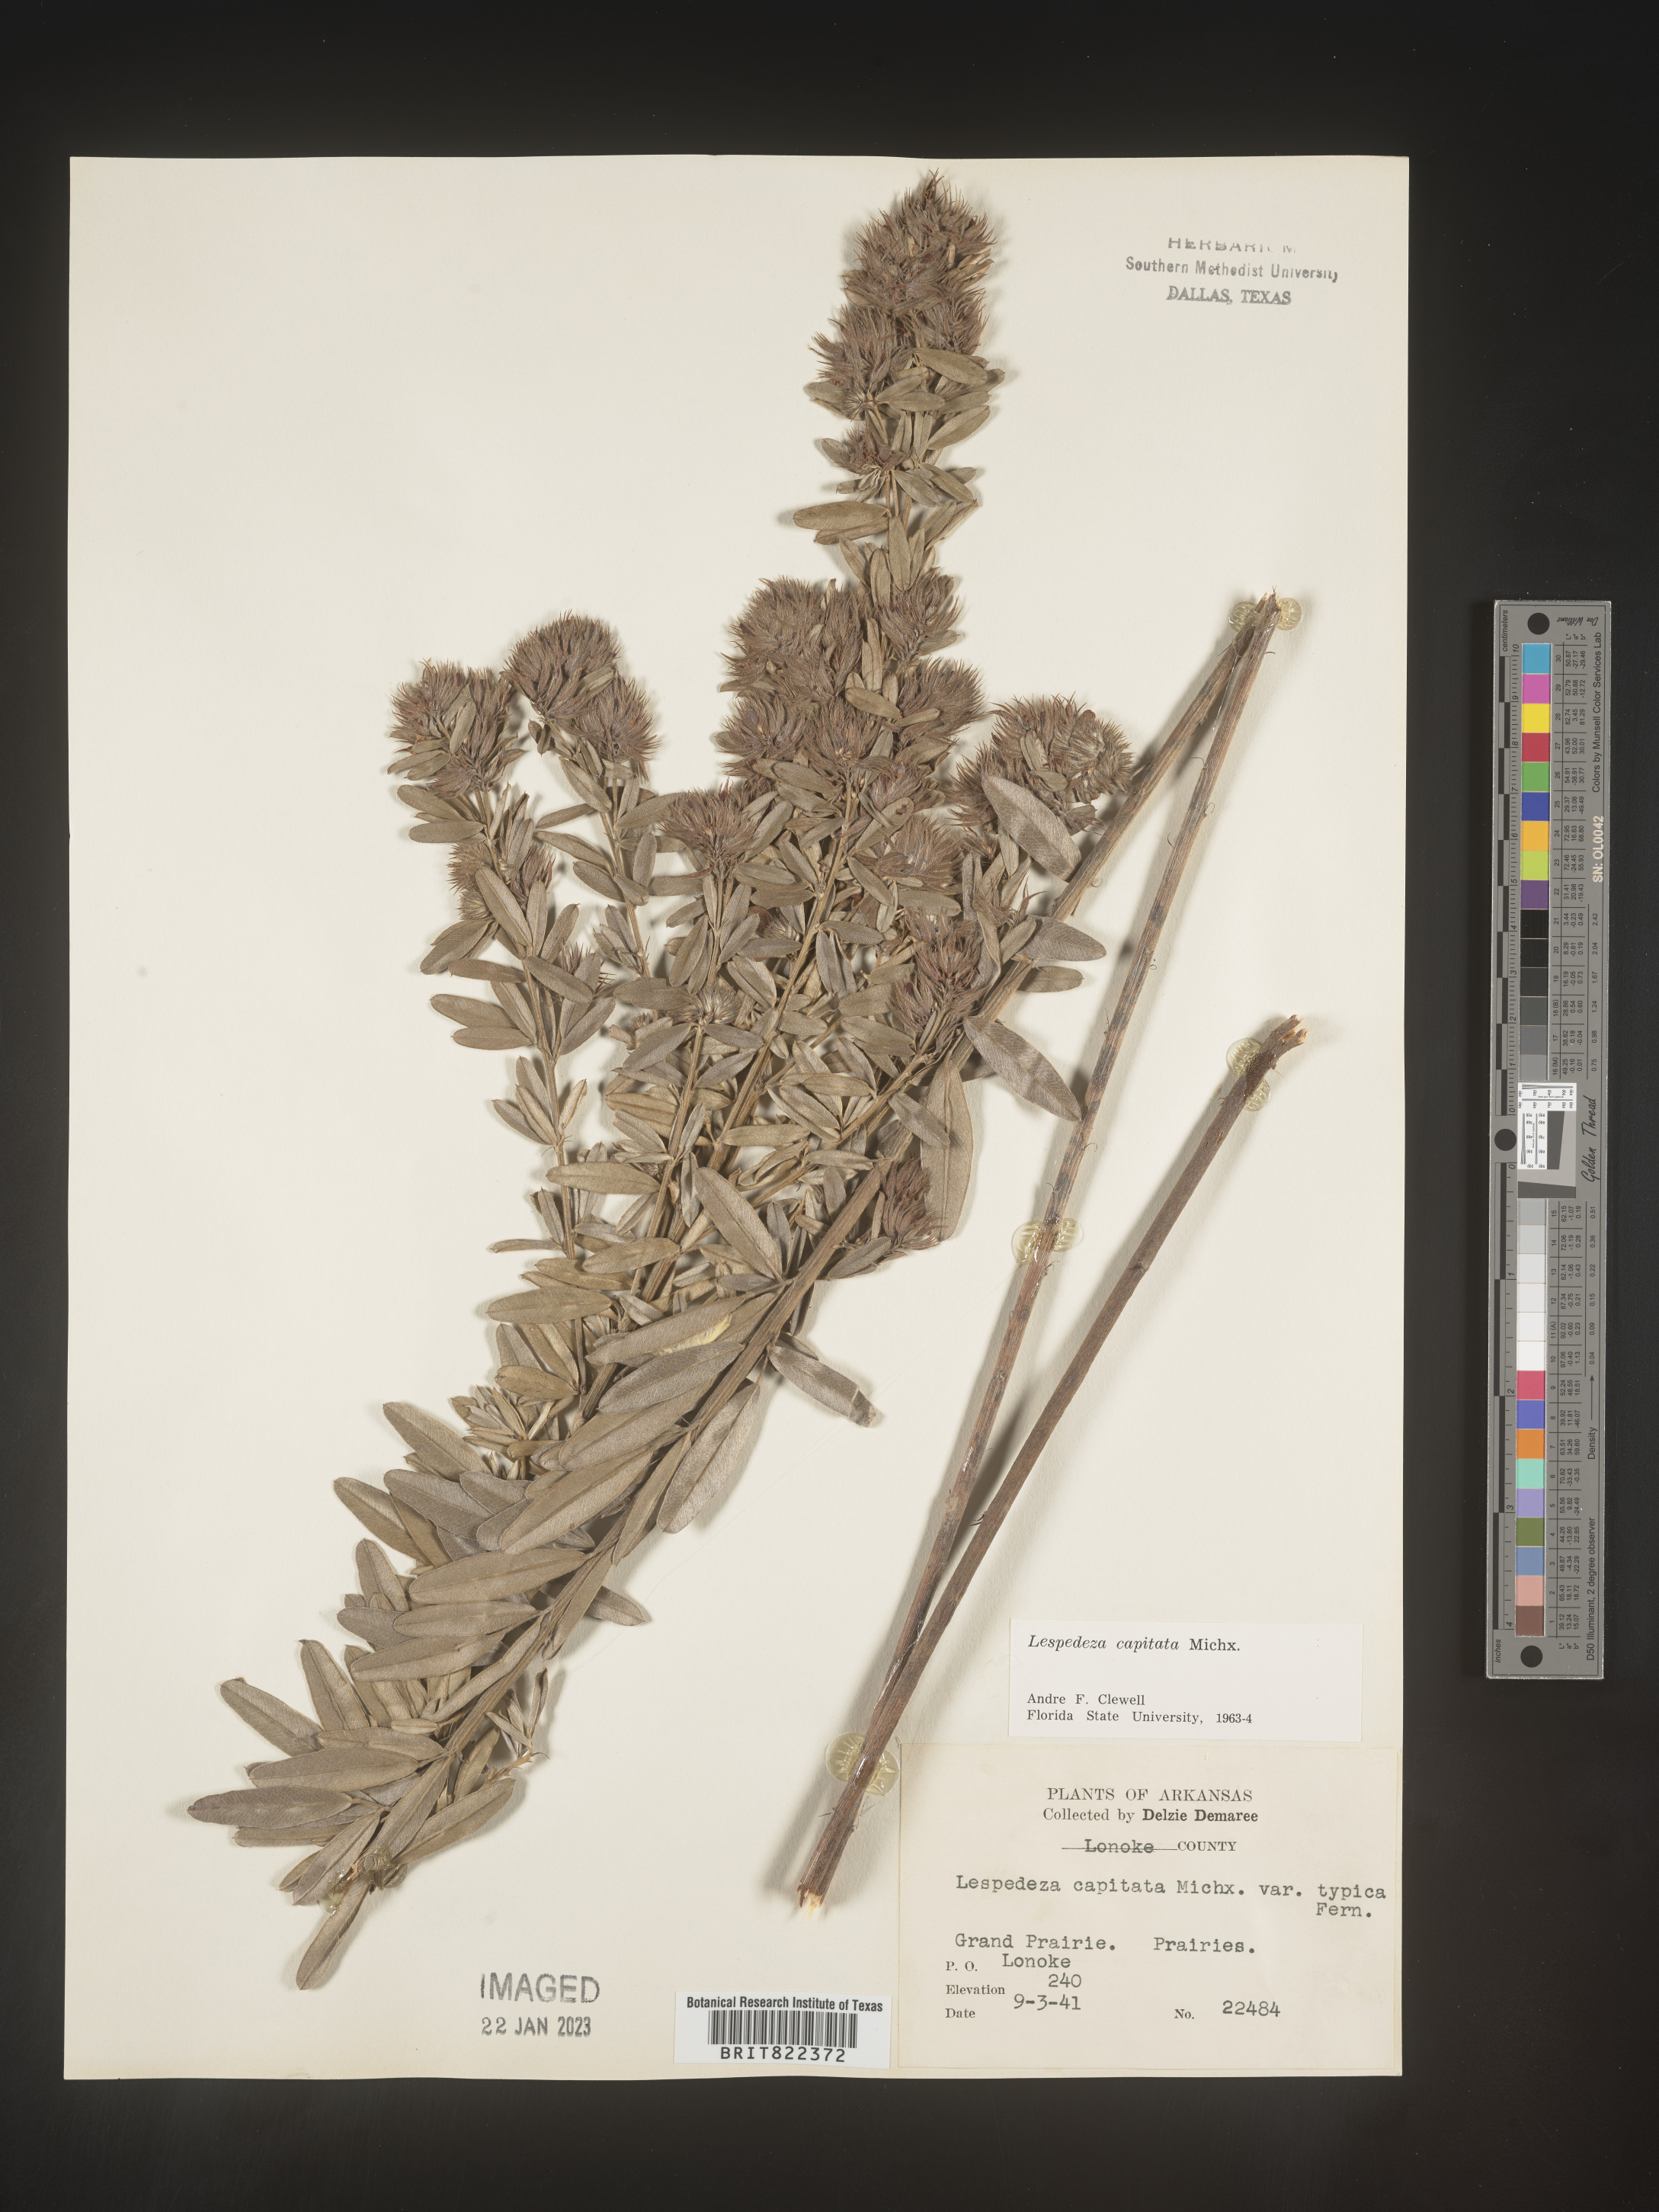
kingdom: Plantae
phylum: Tracheophyta
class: Magnoliopsida
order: Fabales
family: Fabaceae
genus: Lespedeza
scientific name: Lespedeza capitata
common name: Dusty clover
